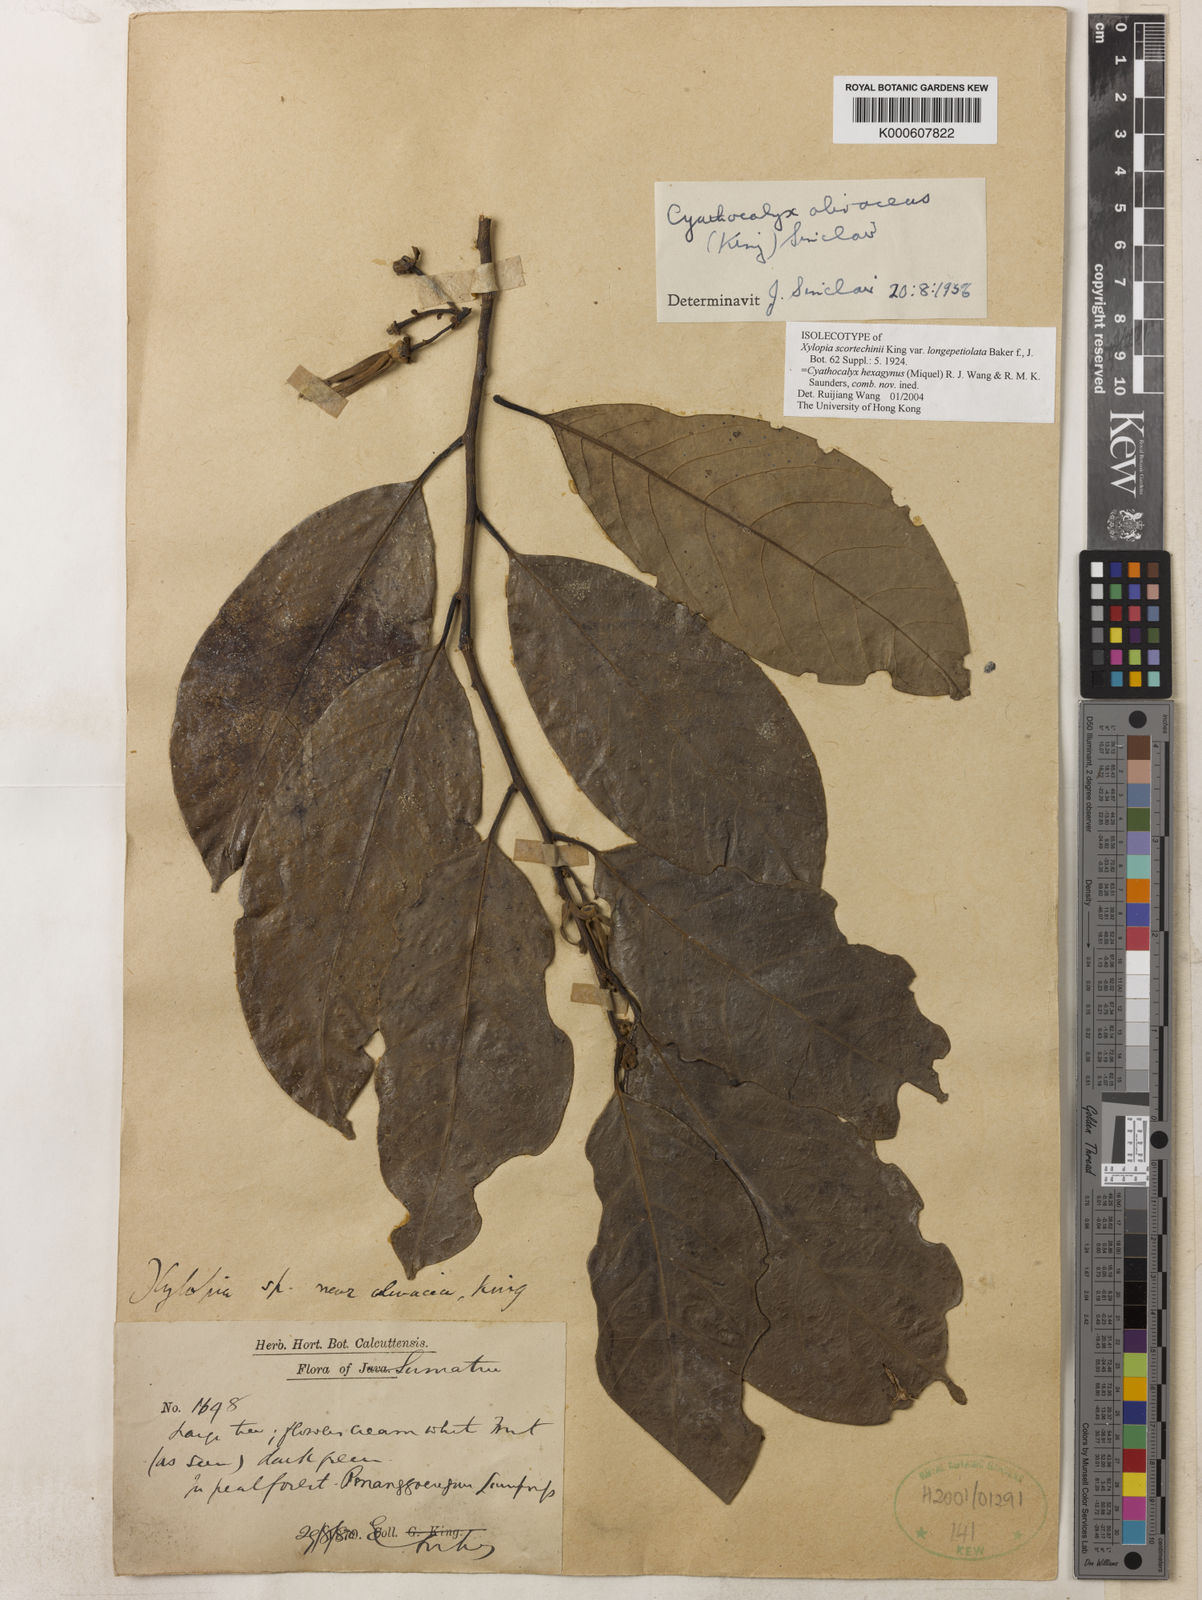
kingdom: Plantae
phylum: Tracheophyta
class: Magnoliopsida
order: Magnoliales
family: Annonaceae
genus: Drepananthus
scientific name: Drepananthus hexagynus
